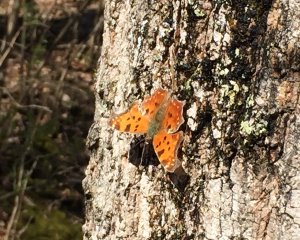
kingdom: Animalia
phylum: Arthropoda
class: Insecta
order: Lepidoptera
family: Nymphalidae
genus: Polygonia
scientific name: Polygonia comma
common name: Eastern Comma
